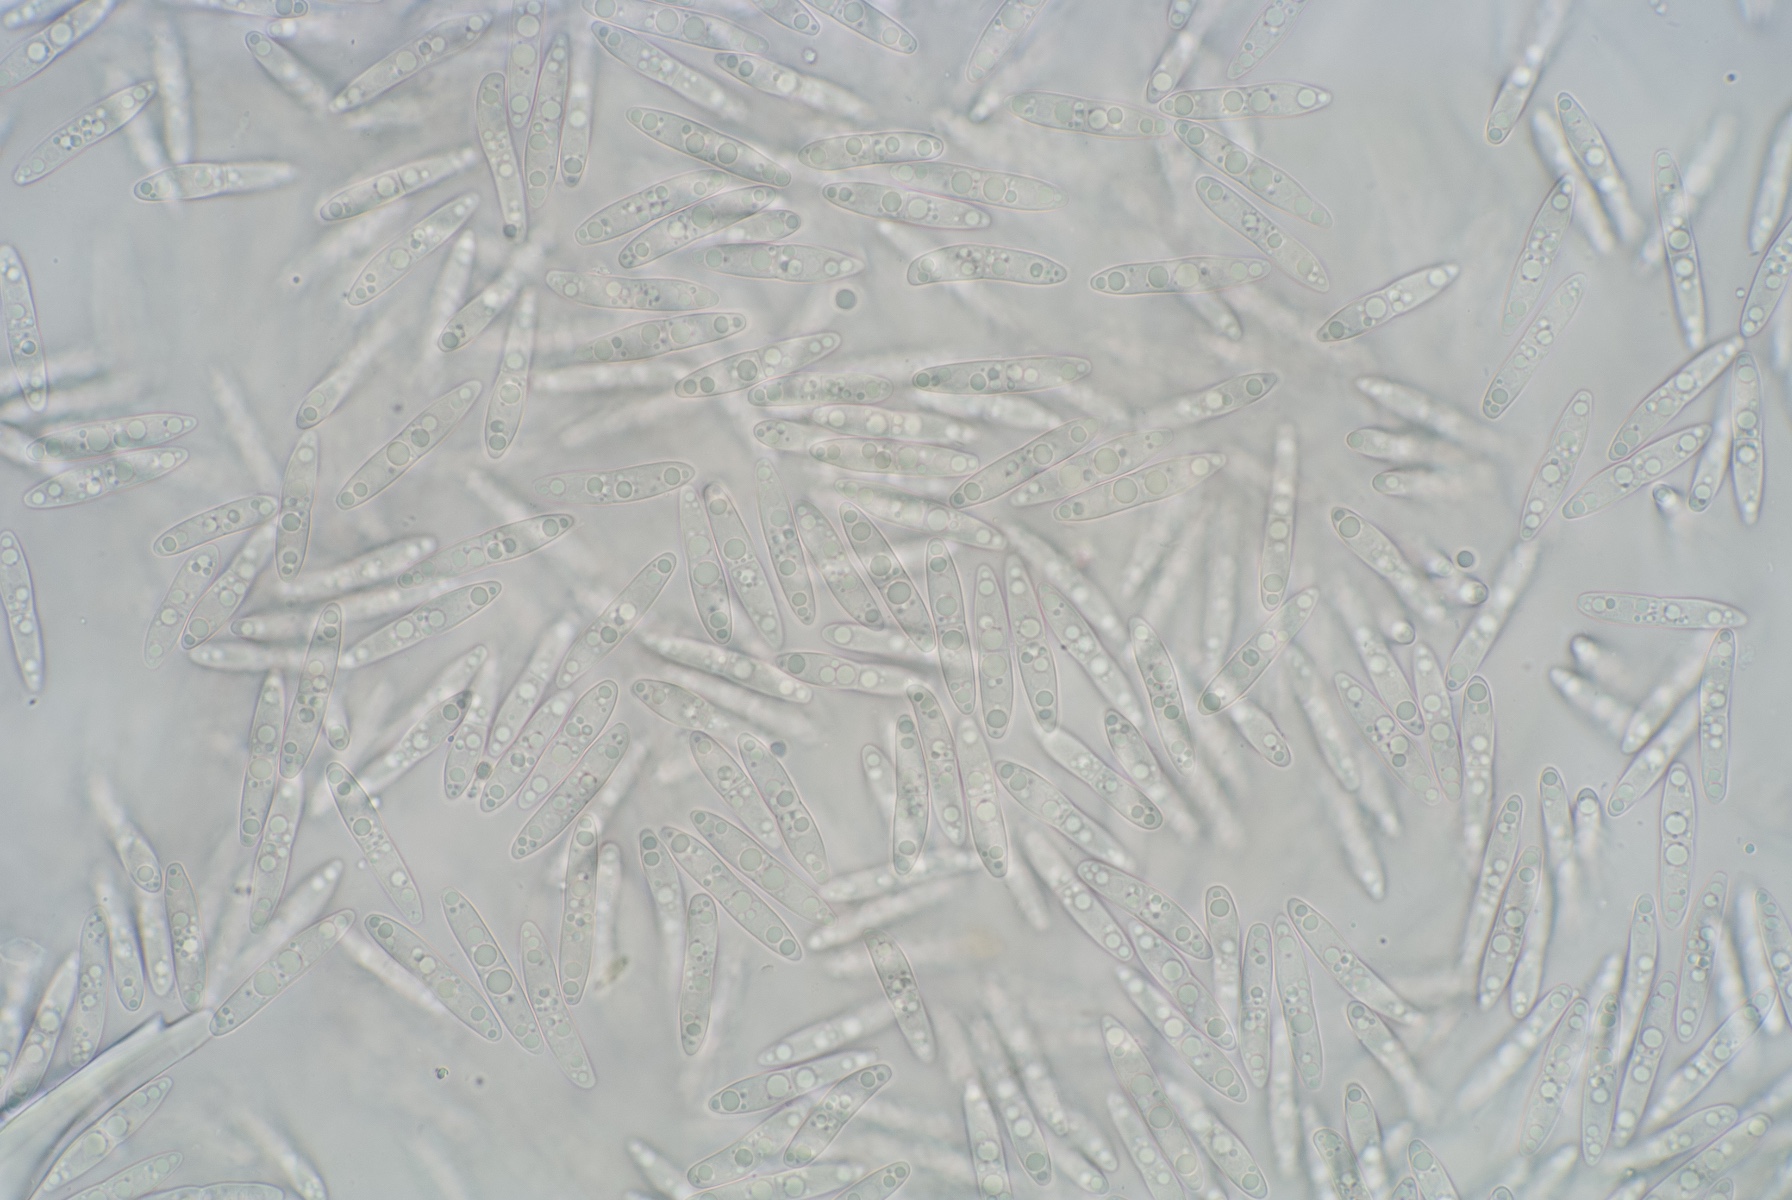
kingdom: Fungi
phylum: Ascomycota
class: Dothideomycetes
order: Pleosporales
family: Phaeosphaeriaceae
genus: Stagonospora
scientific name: Stagonospora typhoidearum
